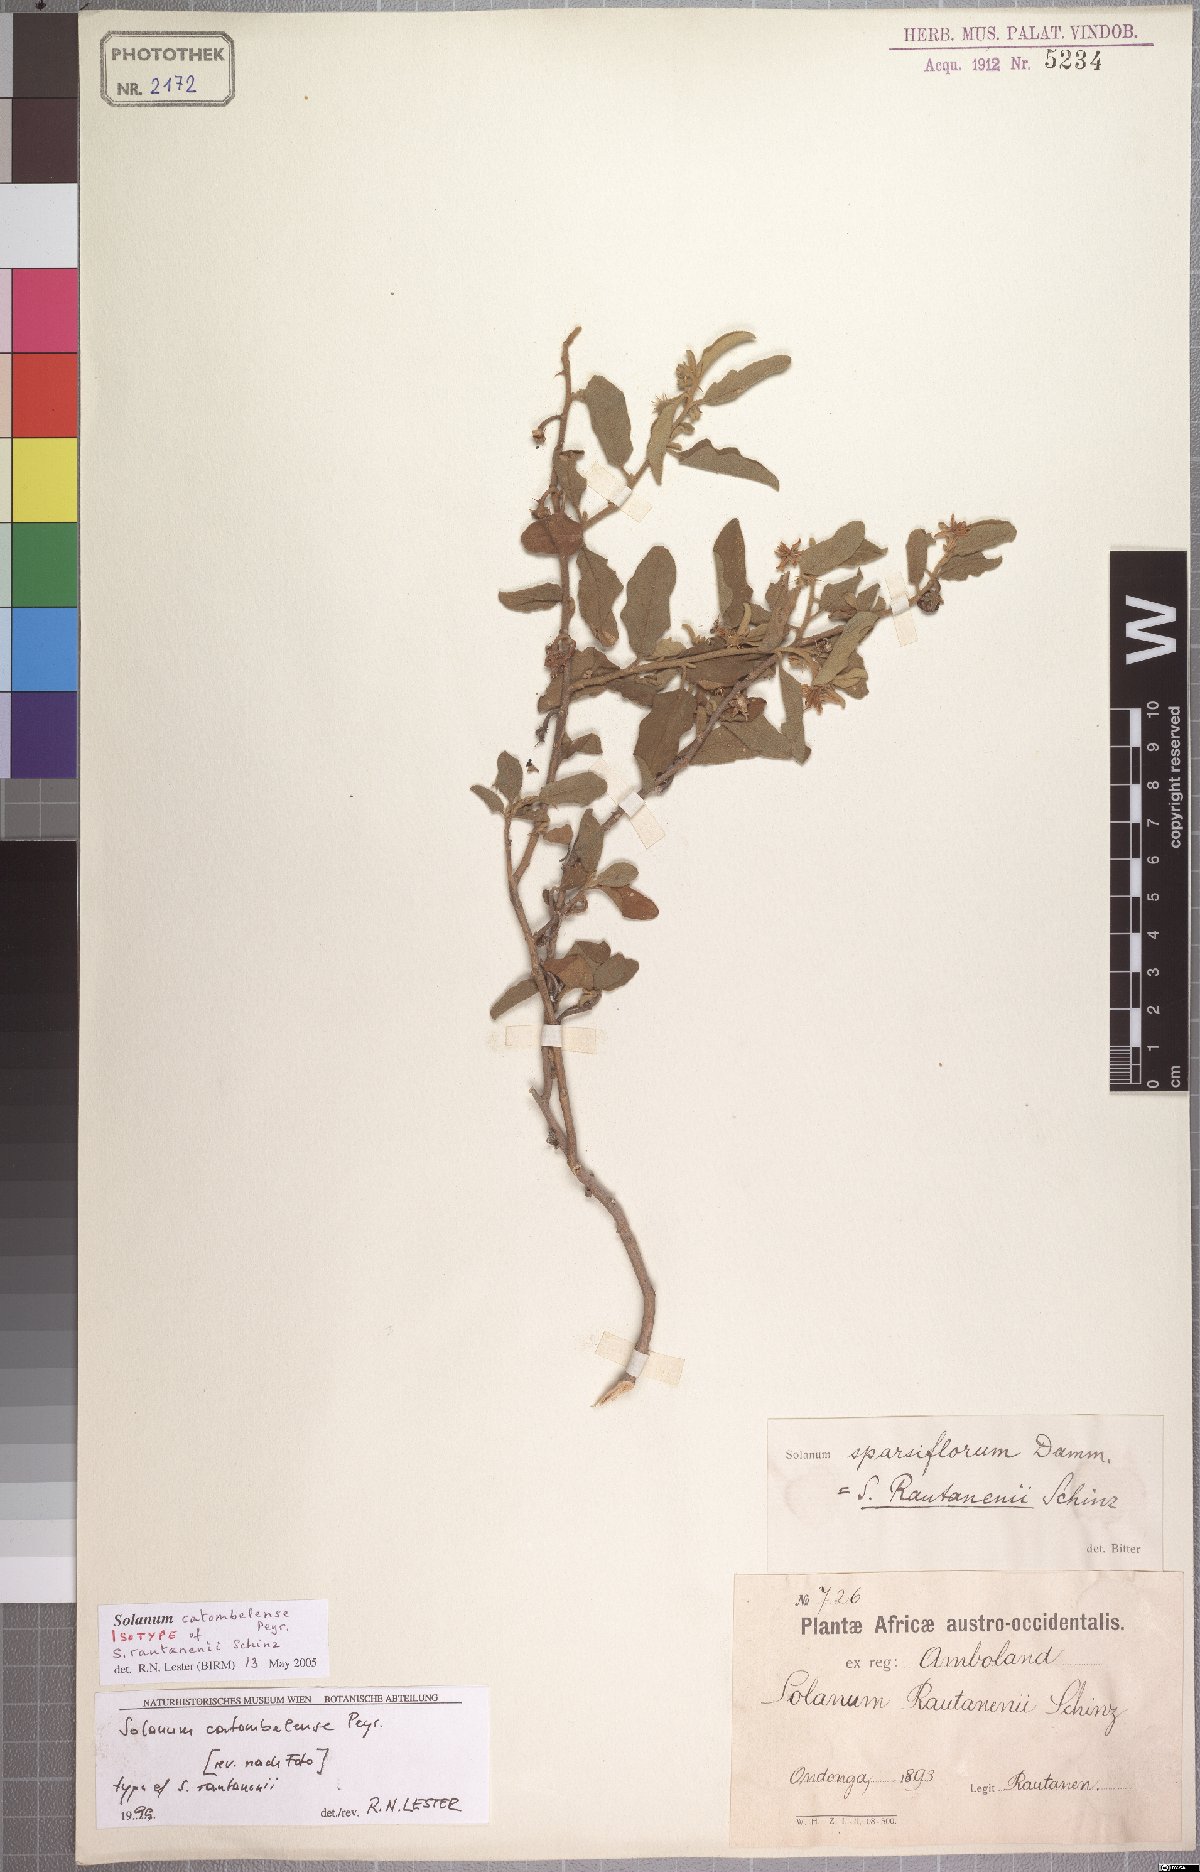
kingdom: Plantae
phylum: Tracheophyta
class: Magnoliopsida
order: Solanales
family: Solanaceae
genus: Solanum
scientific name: Solanum catombelense
